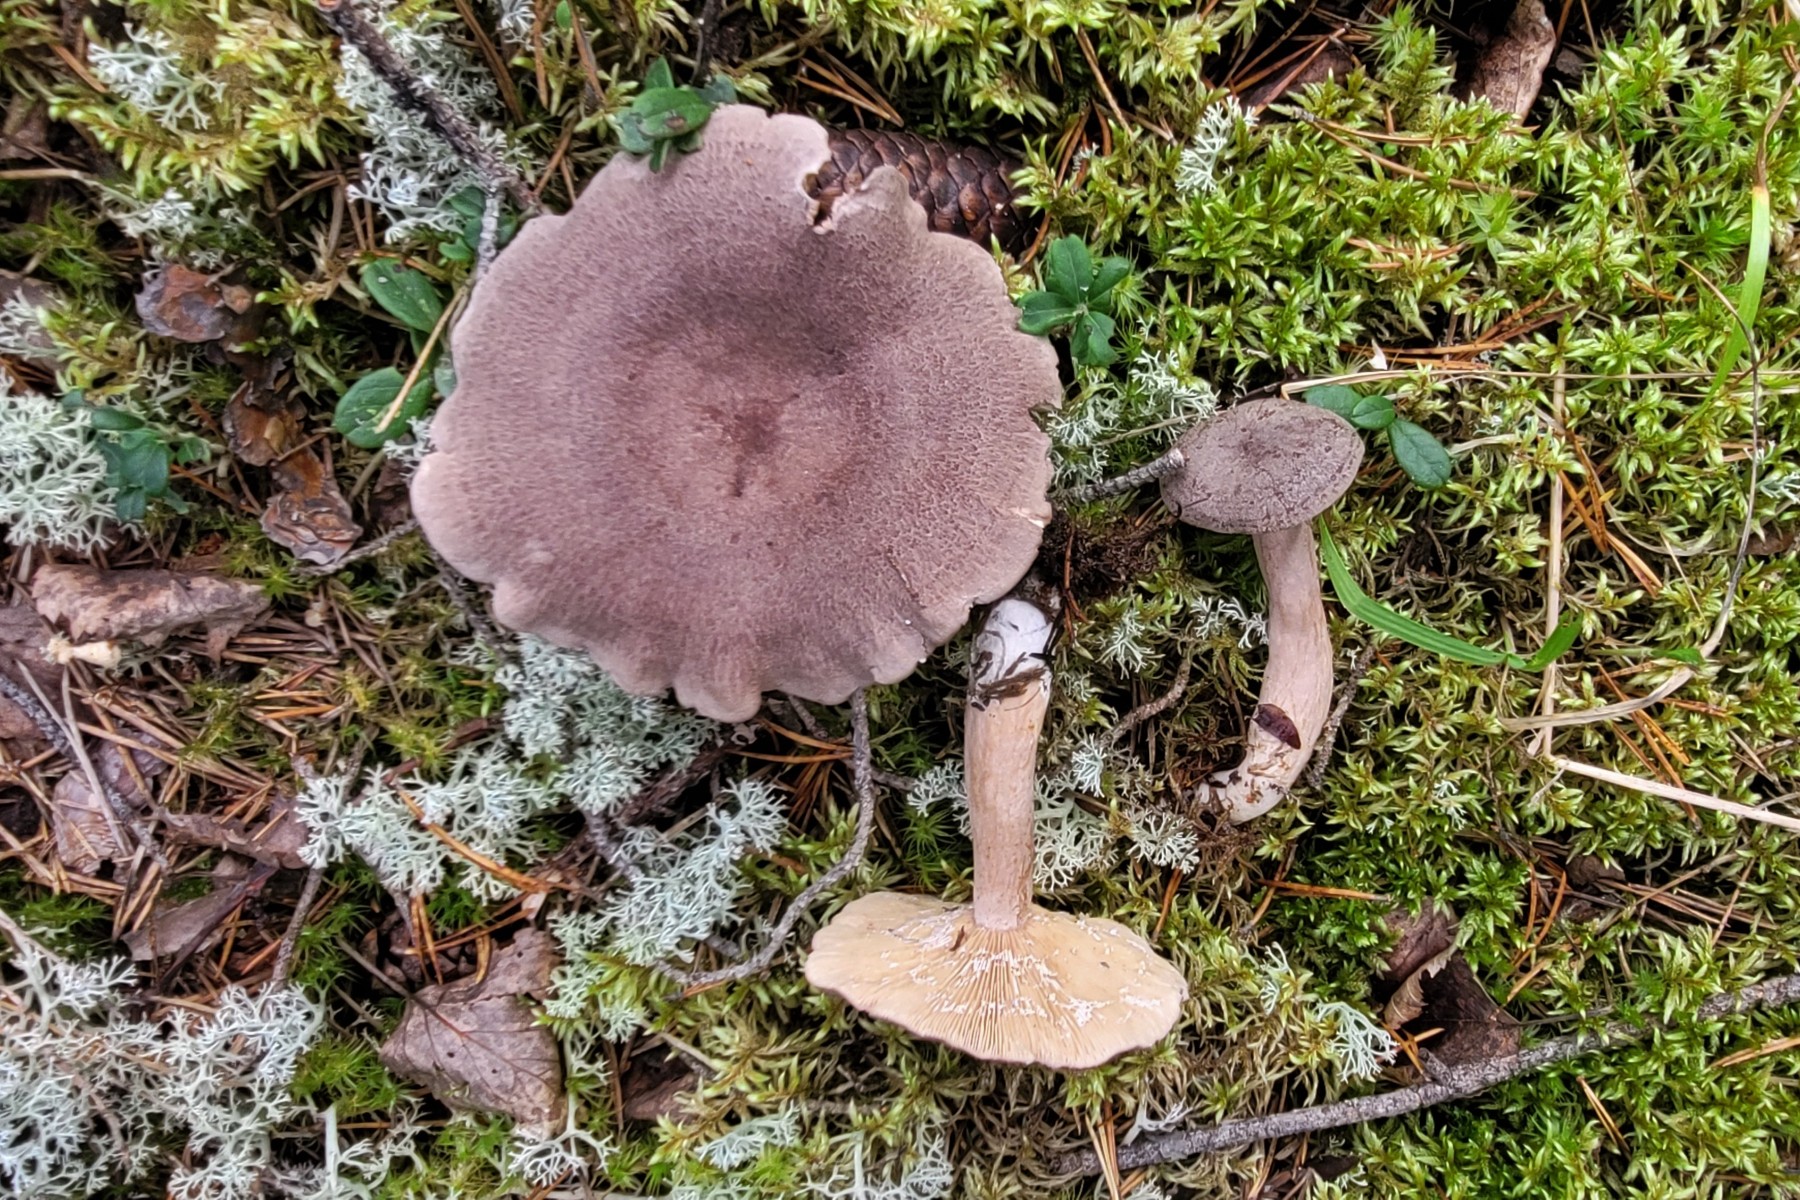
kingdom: Fungi
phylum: Basidiomycota
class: Agaricomycetes
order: Russulales
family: Russulaceae
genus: Lactarius
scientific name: Lactarius mammosus
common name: kokosbrun mælkehat
